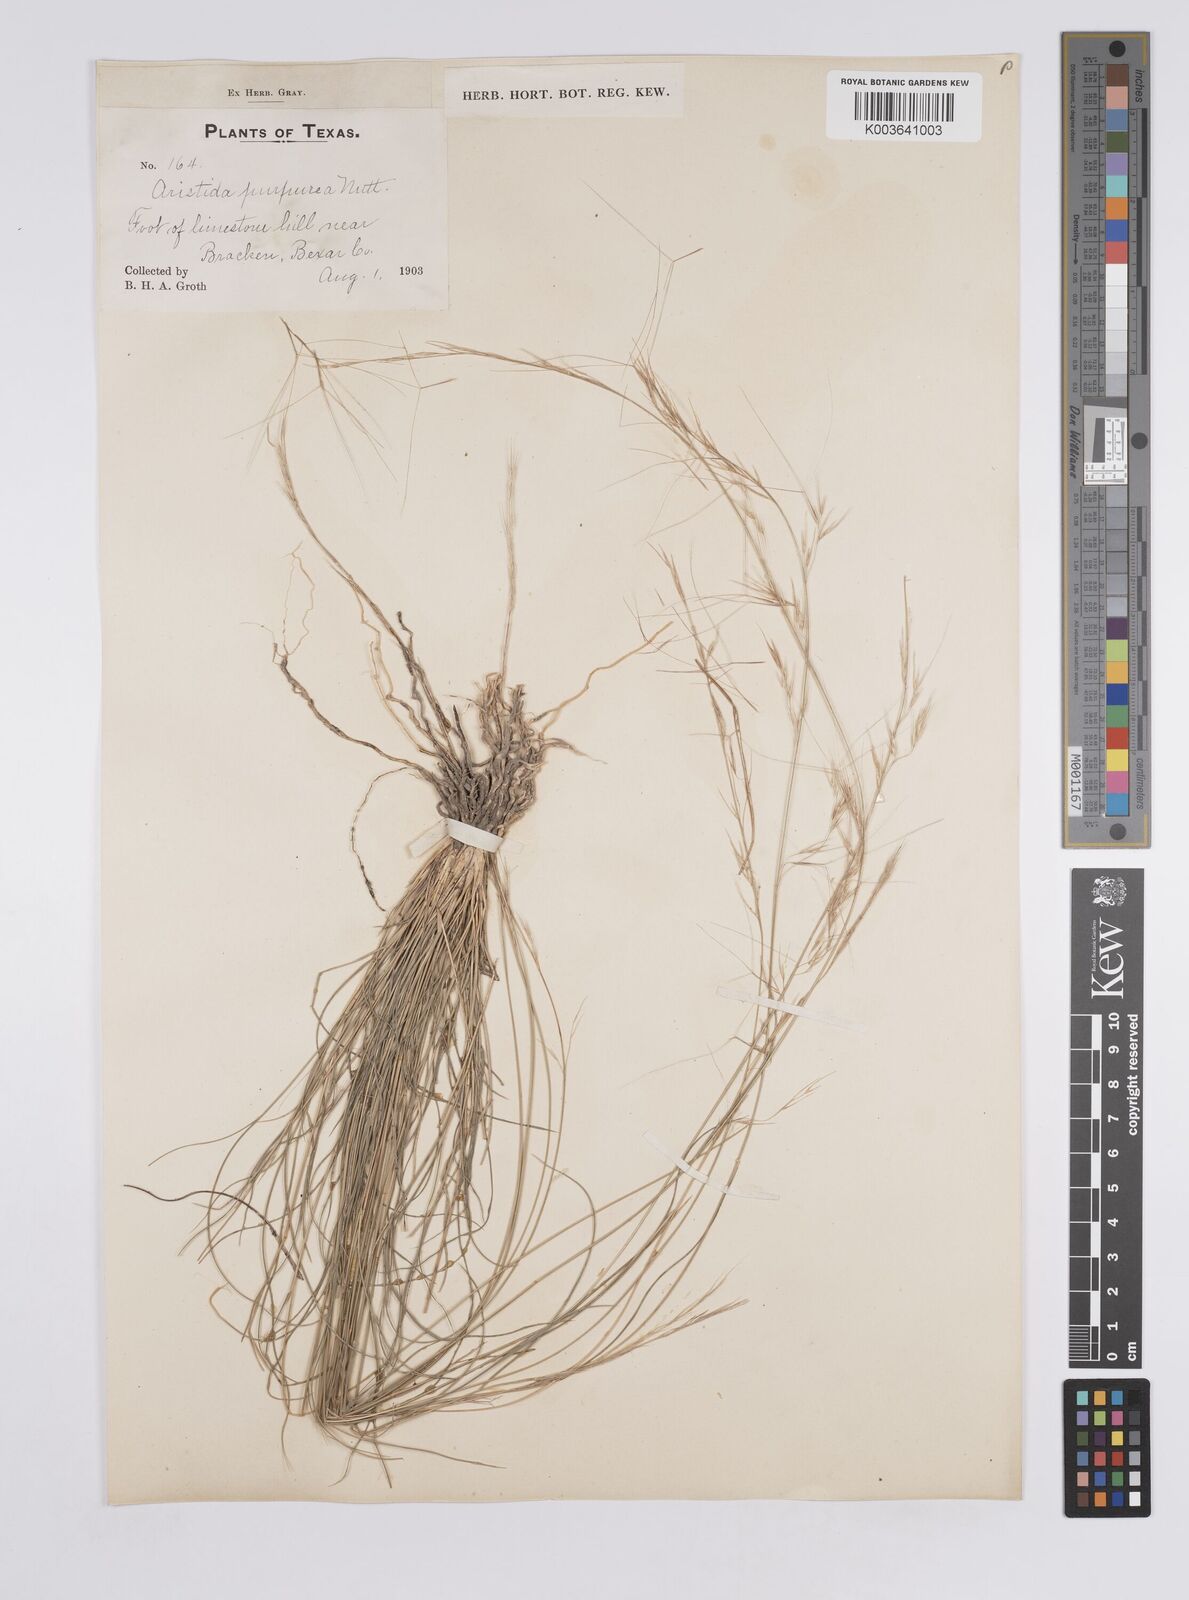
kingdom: Plantae
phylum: Tracheophyta
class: Liliopsida
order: Poales
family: Poaceae
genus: Aristida
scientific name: Aristida purpurea
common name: Purple threeawn
